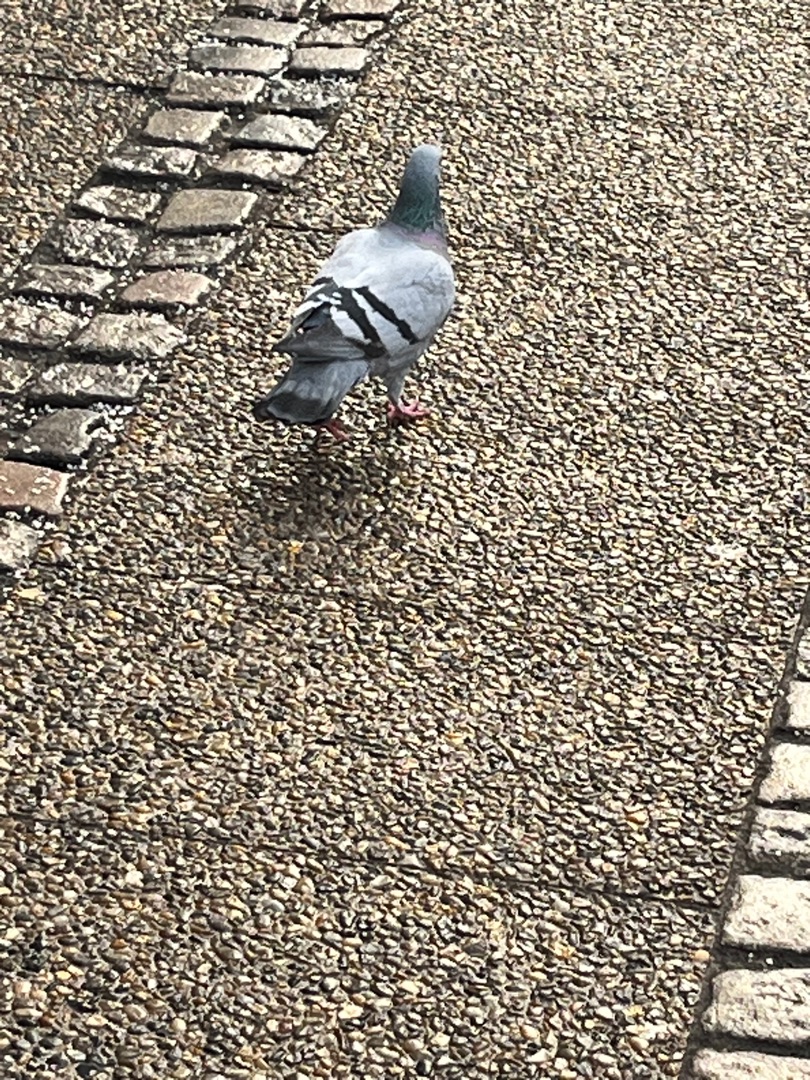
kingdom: Animalia
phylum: Chordata
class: Aves
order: Columbiformes
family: Columbidae
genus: Columba
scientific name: Columba livia
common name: Tamdue
